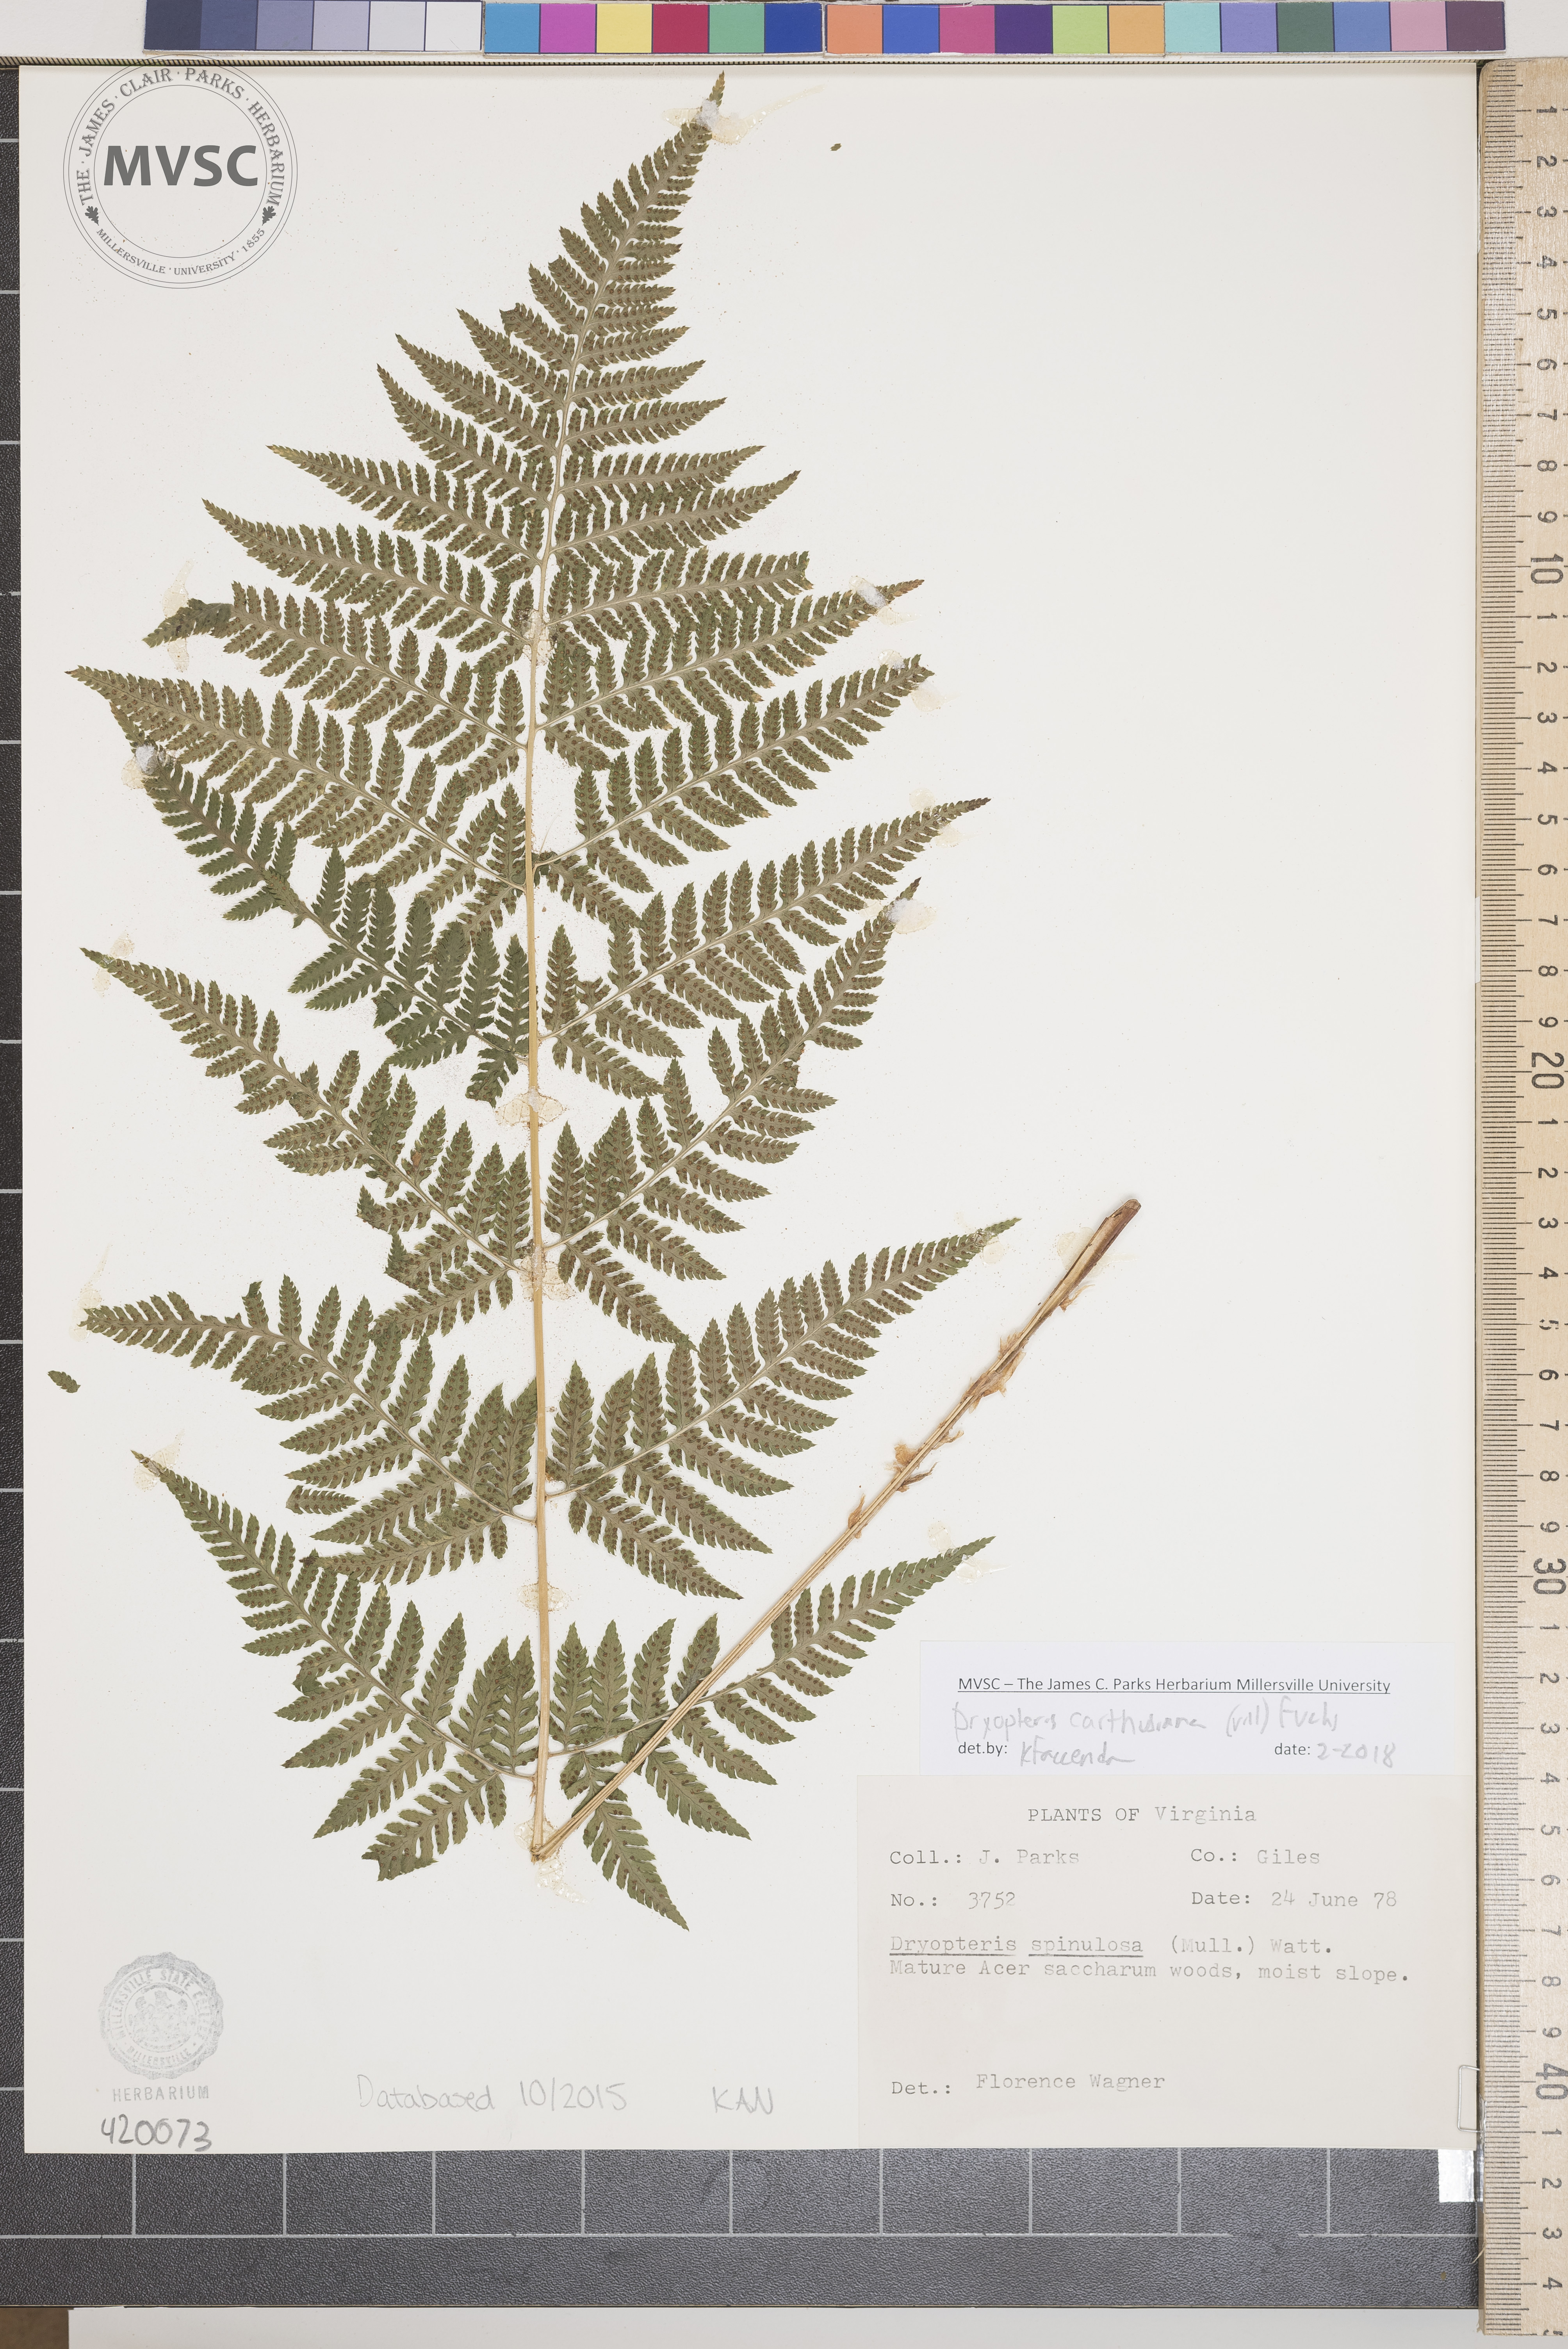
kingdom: Plantae
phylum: Tracheophyta
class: Polypodiopsida
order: Polypodiales
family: Dryopteridaceae
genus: Dryopteris
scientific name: Dryopteris carthusiana
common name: Narrow buckler-fern
